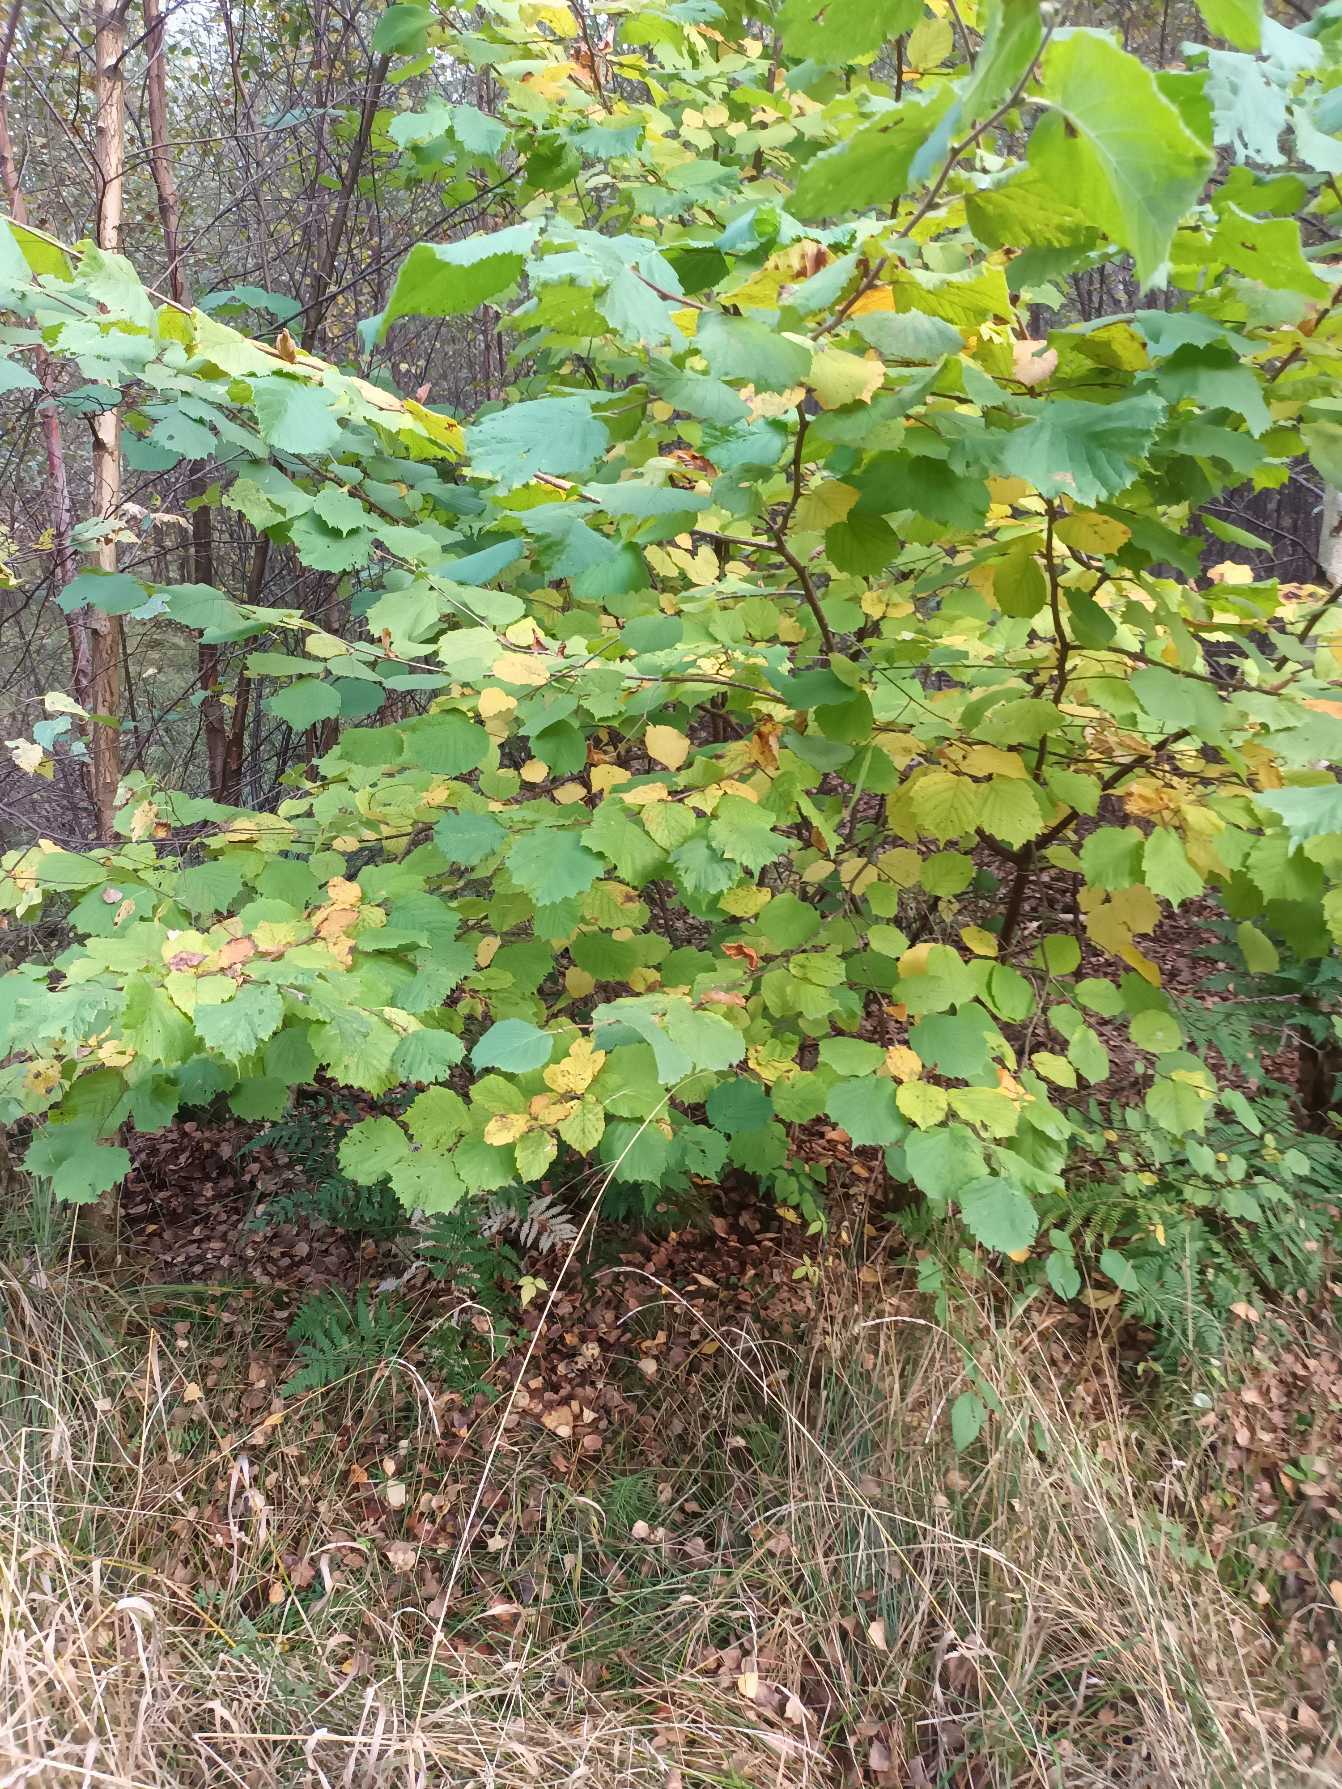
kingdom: Plantae
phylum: Tracheophyta
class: Magnoliopsida
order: Fagales
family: Betulaceae
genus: Corylus
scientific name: Corylus avellana
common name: Hassel
